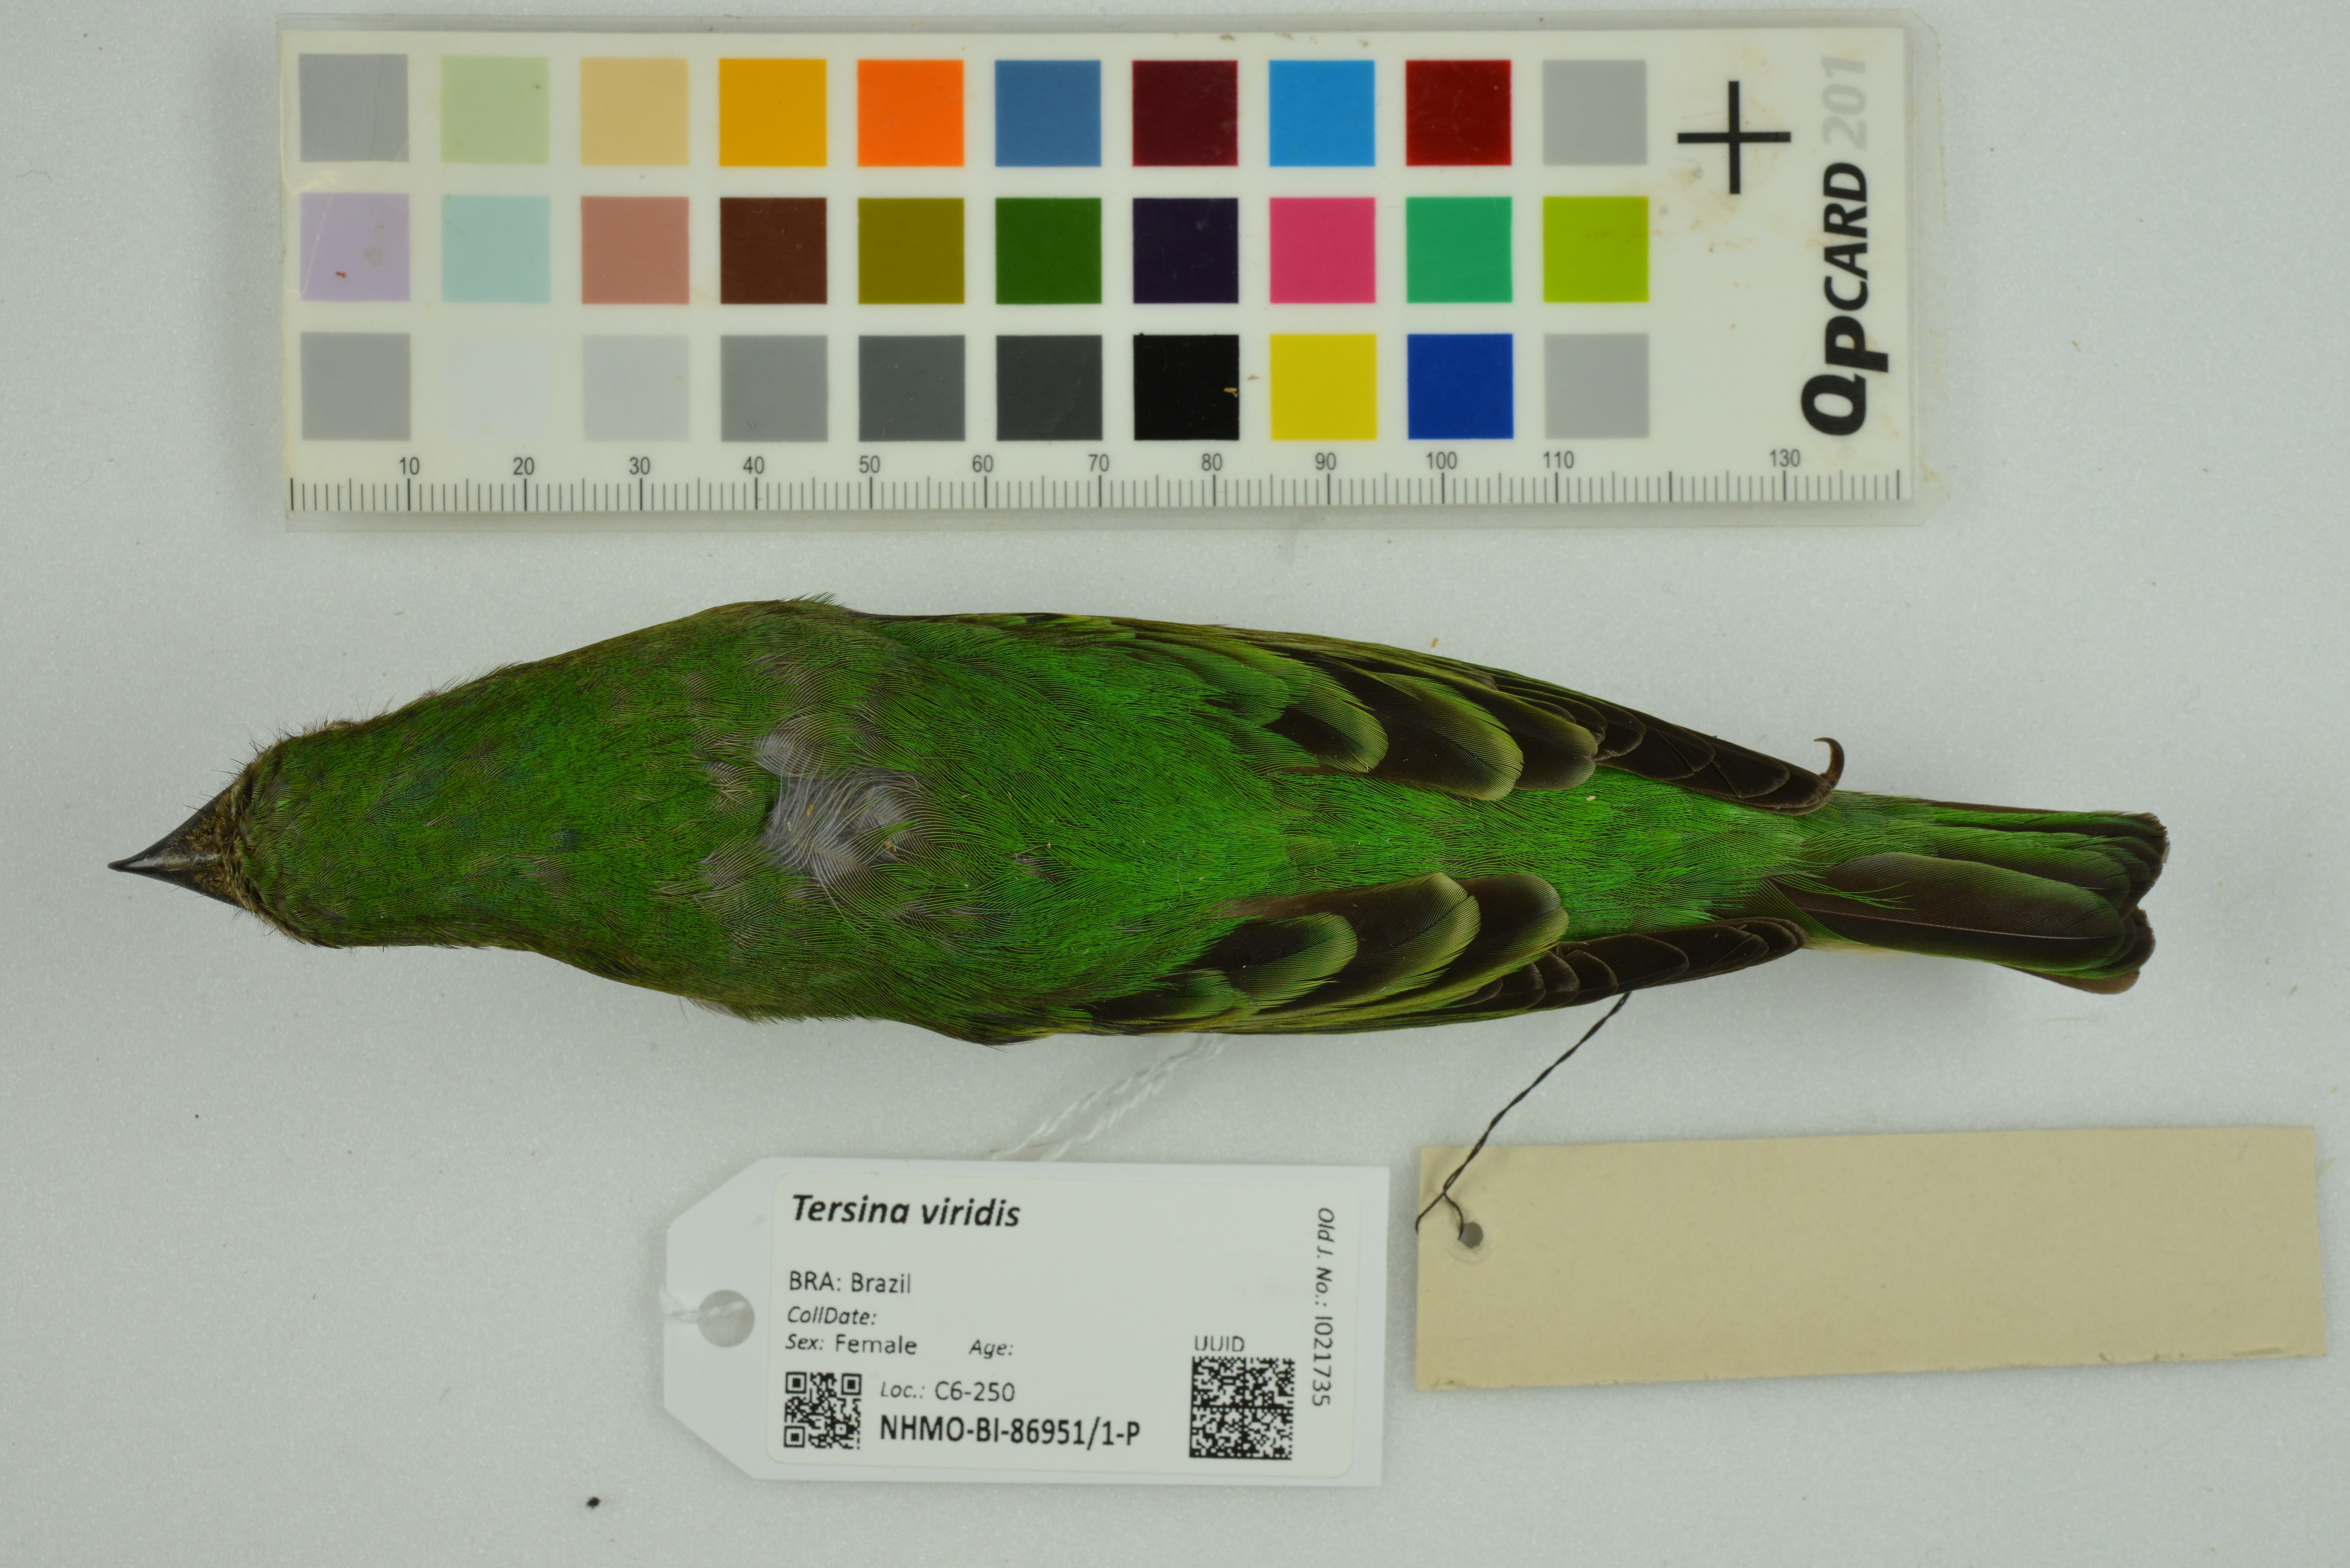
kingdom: Animalia
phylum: Chordata
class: Aves
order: Passeriformes
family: Thraupidae
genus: Tersina
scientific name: Tersina viridis
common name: Swallow tanager
